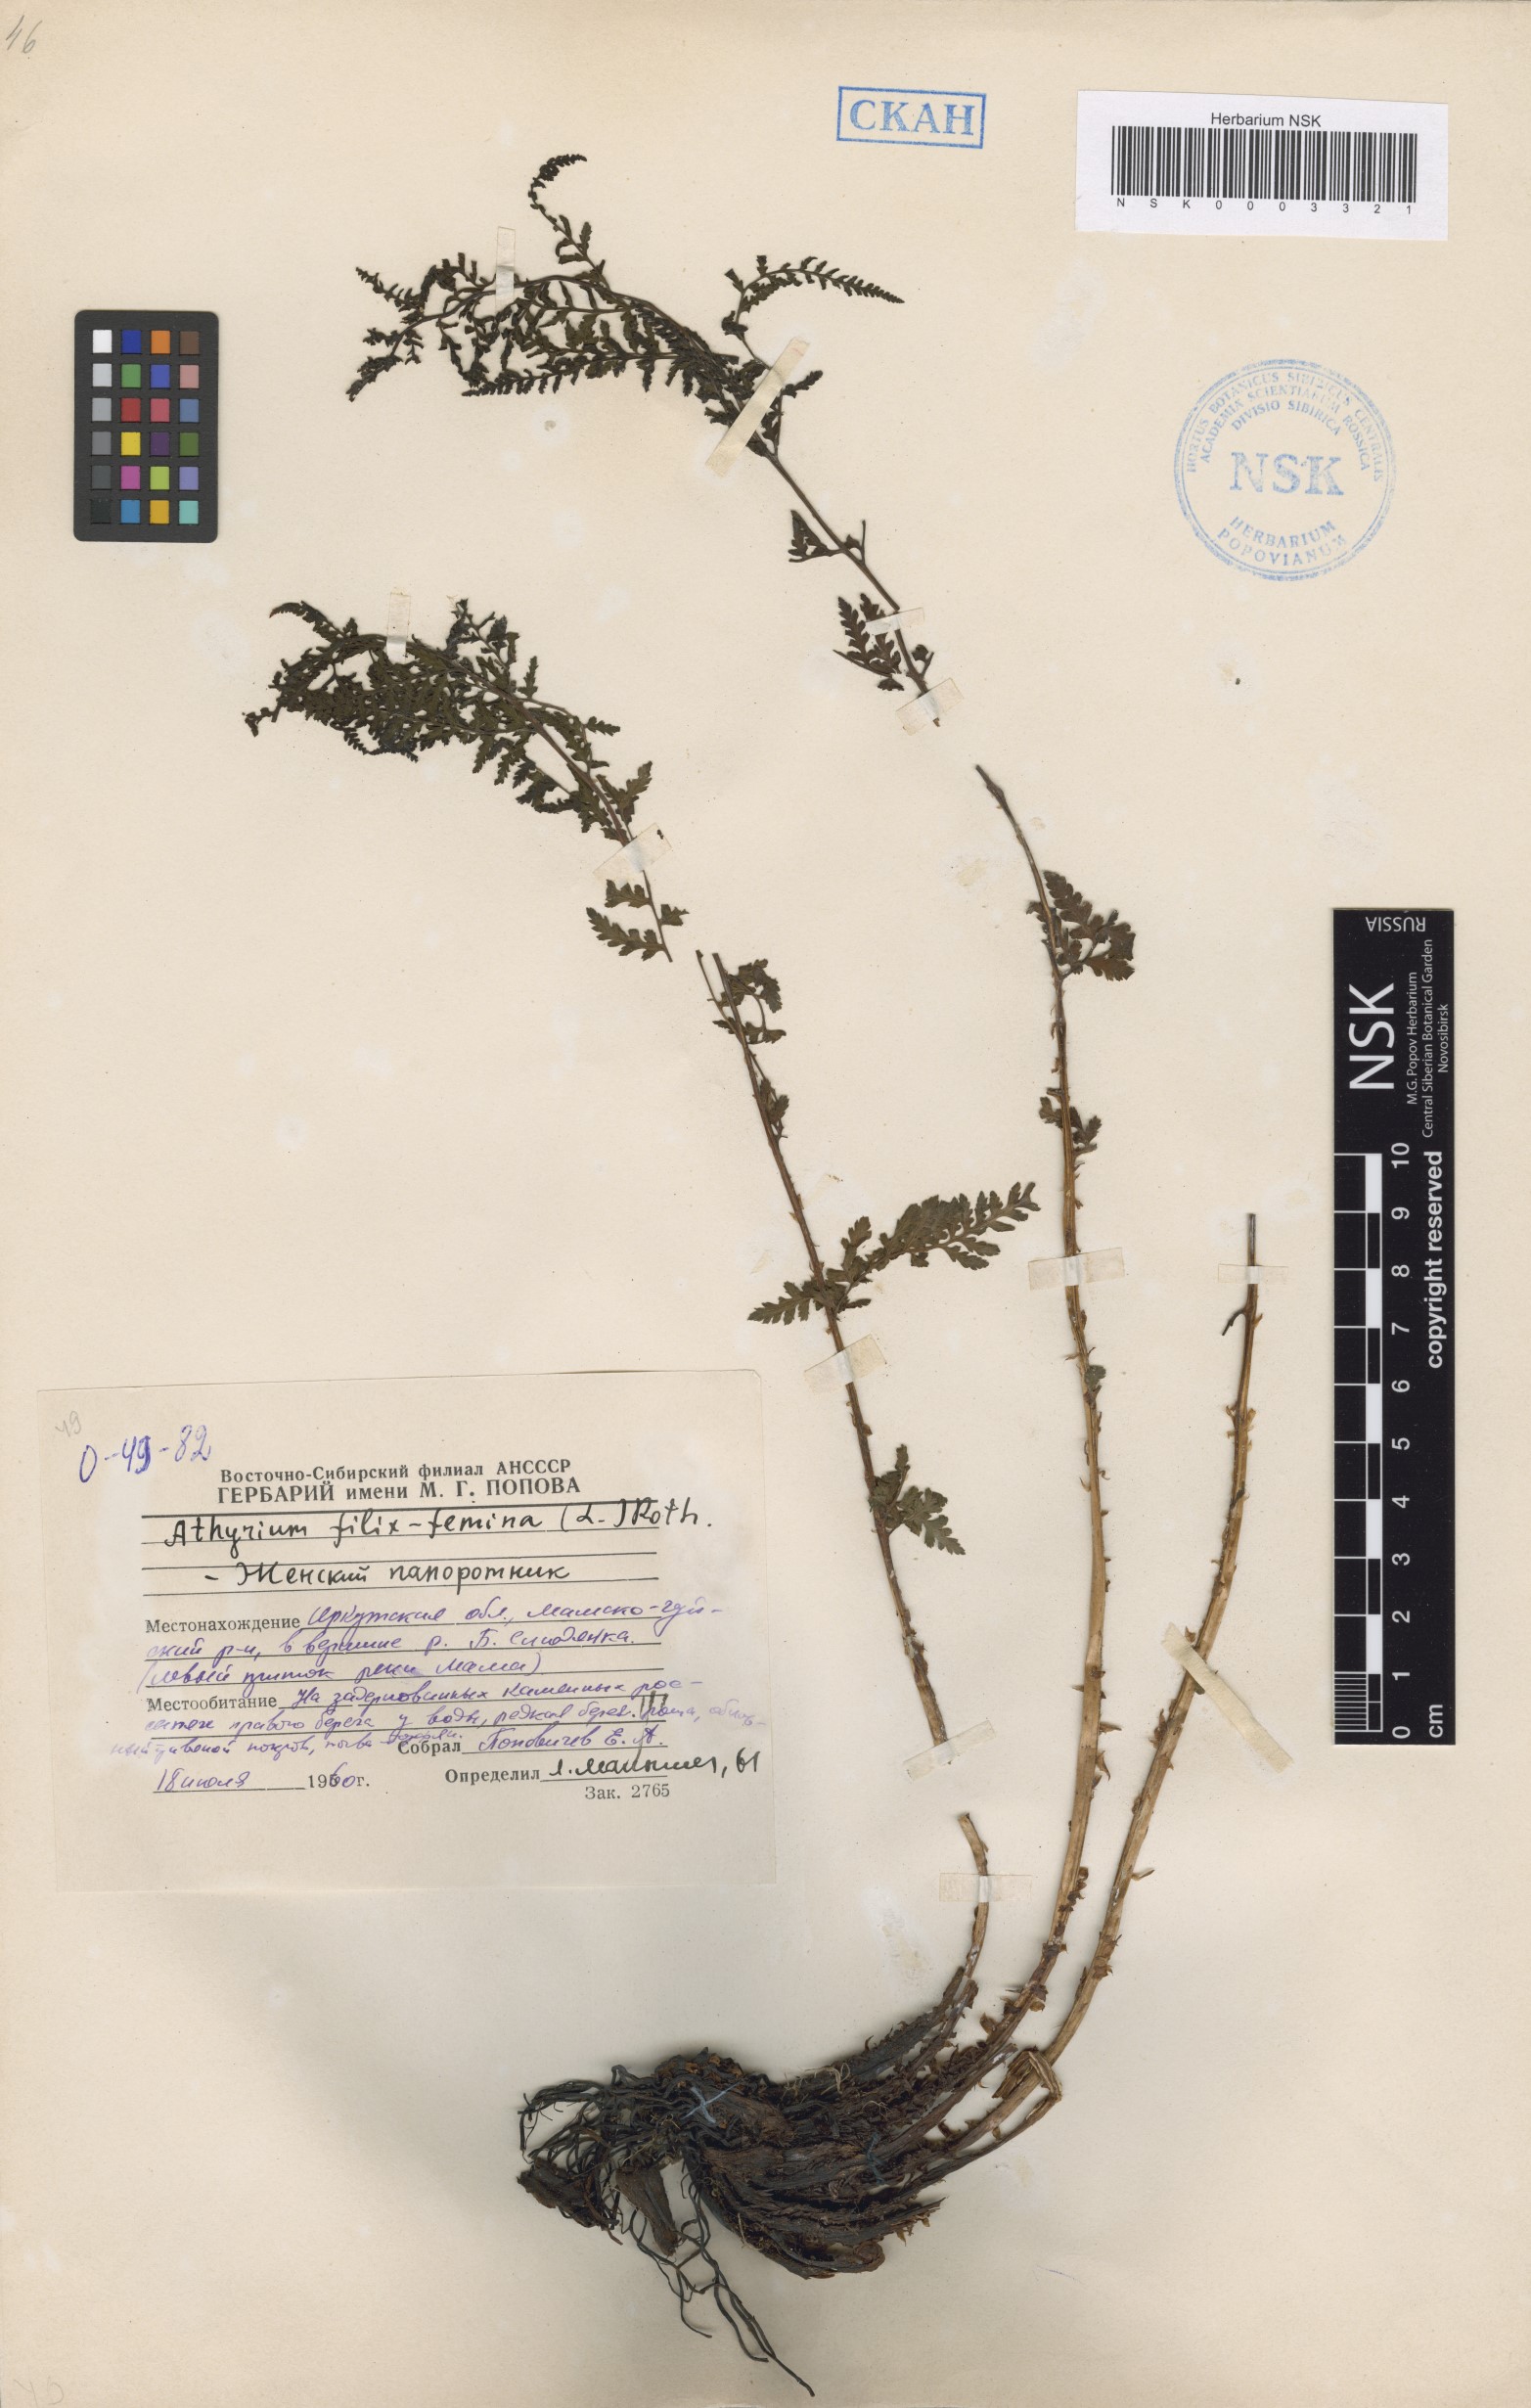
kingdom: Plantae
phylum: Tracheophyta
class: Polypodiopsida
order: Polypodiales
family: Athyriaceae
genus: Athyrium
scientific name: Athyrium filix-femina
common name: Lady fern
